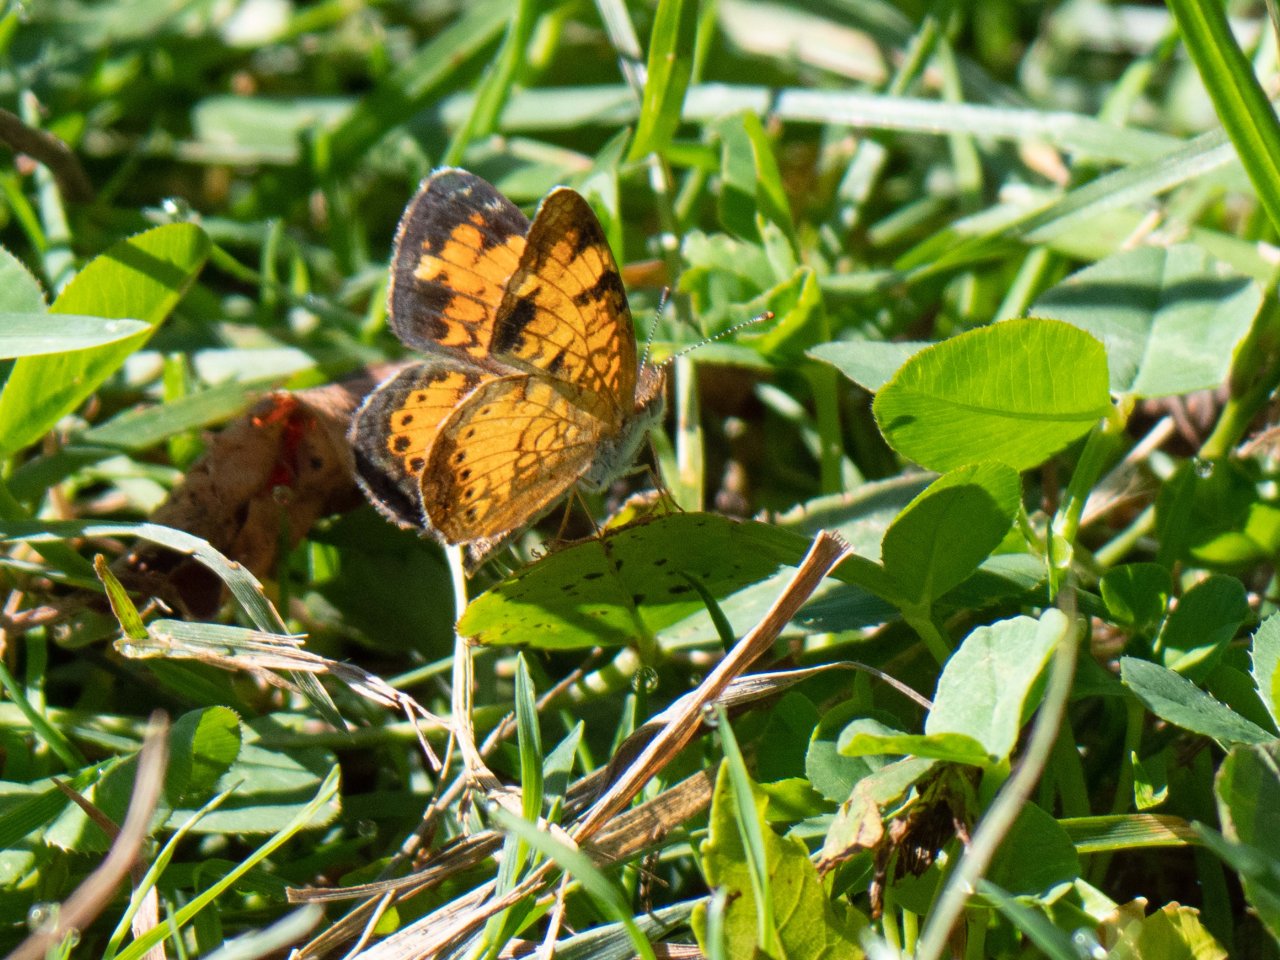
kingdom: Animalia
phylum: Arthropoda
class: Insecta
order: Lepidoptera
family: Nymphalidae
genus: Phyciodes
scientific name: Phyciodes
